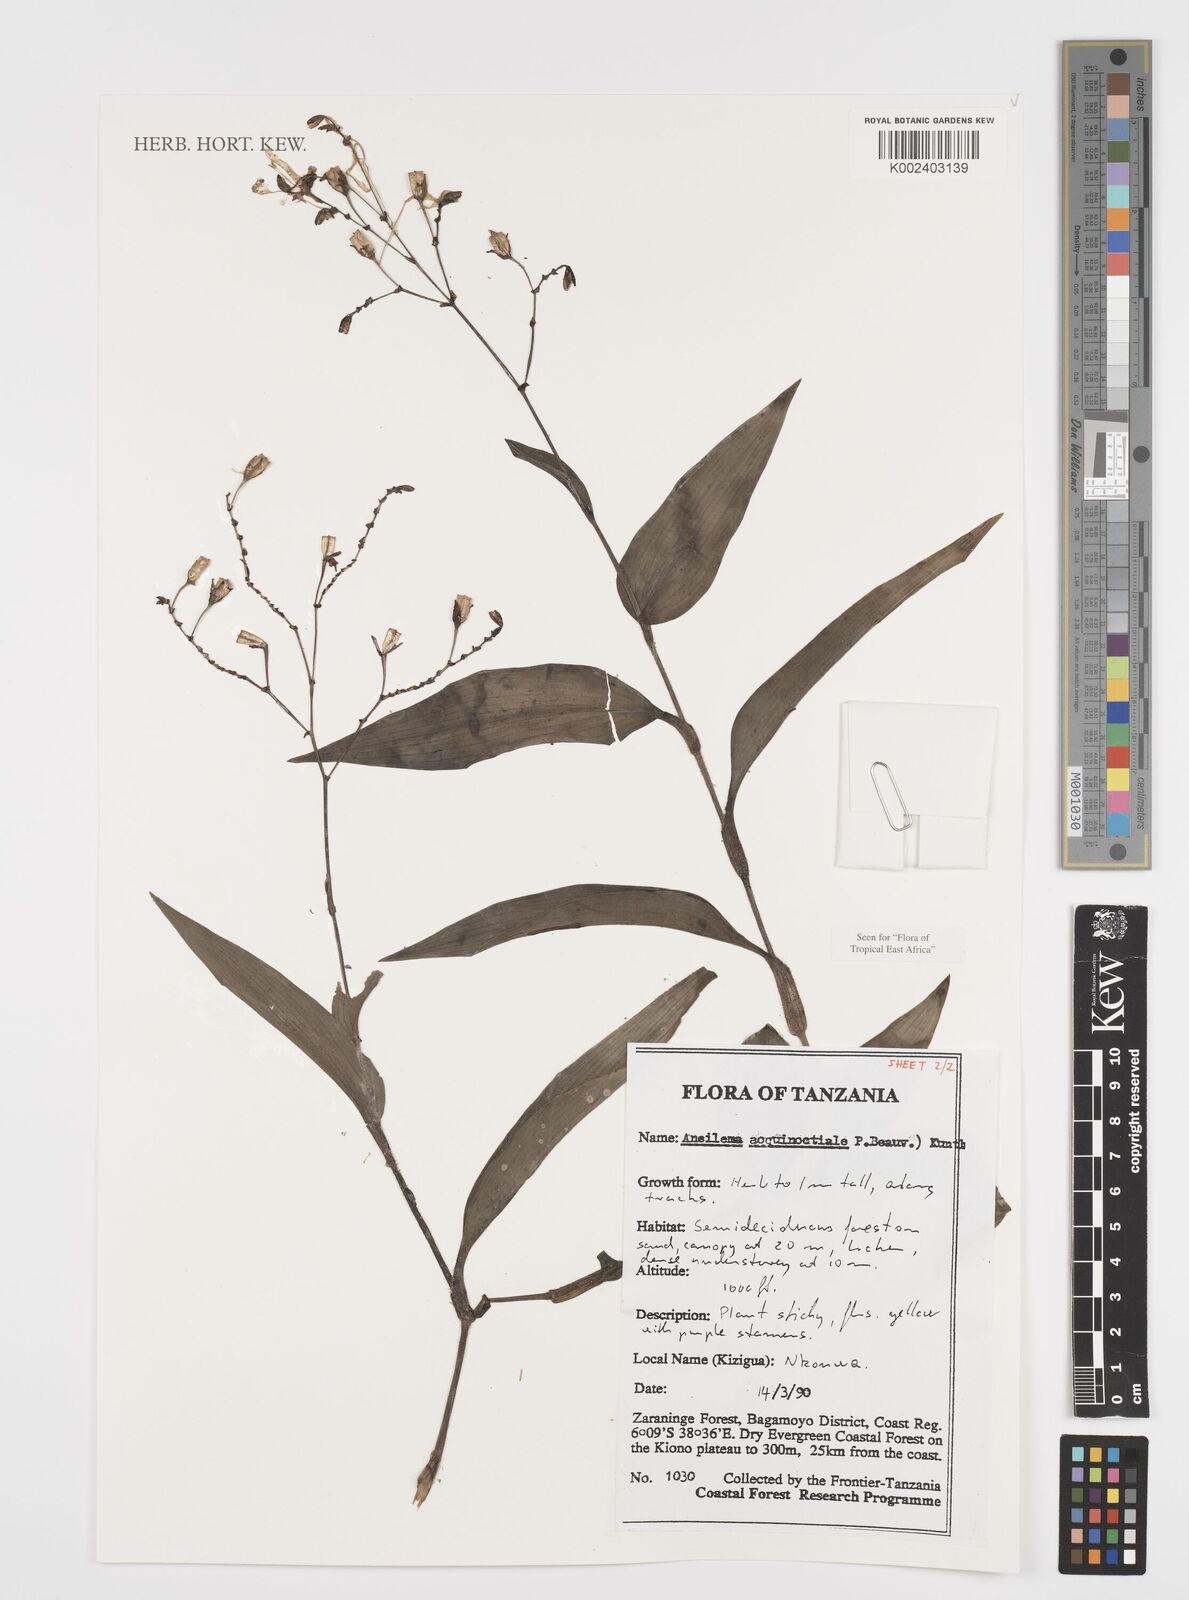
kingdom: Plantae
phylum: Tracheophyta
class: Liliopsida
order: Commelinales
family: Commelinaceae
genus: Aneilema
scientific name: Aneilema aequinoctiale
